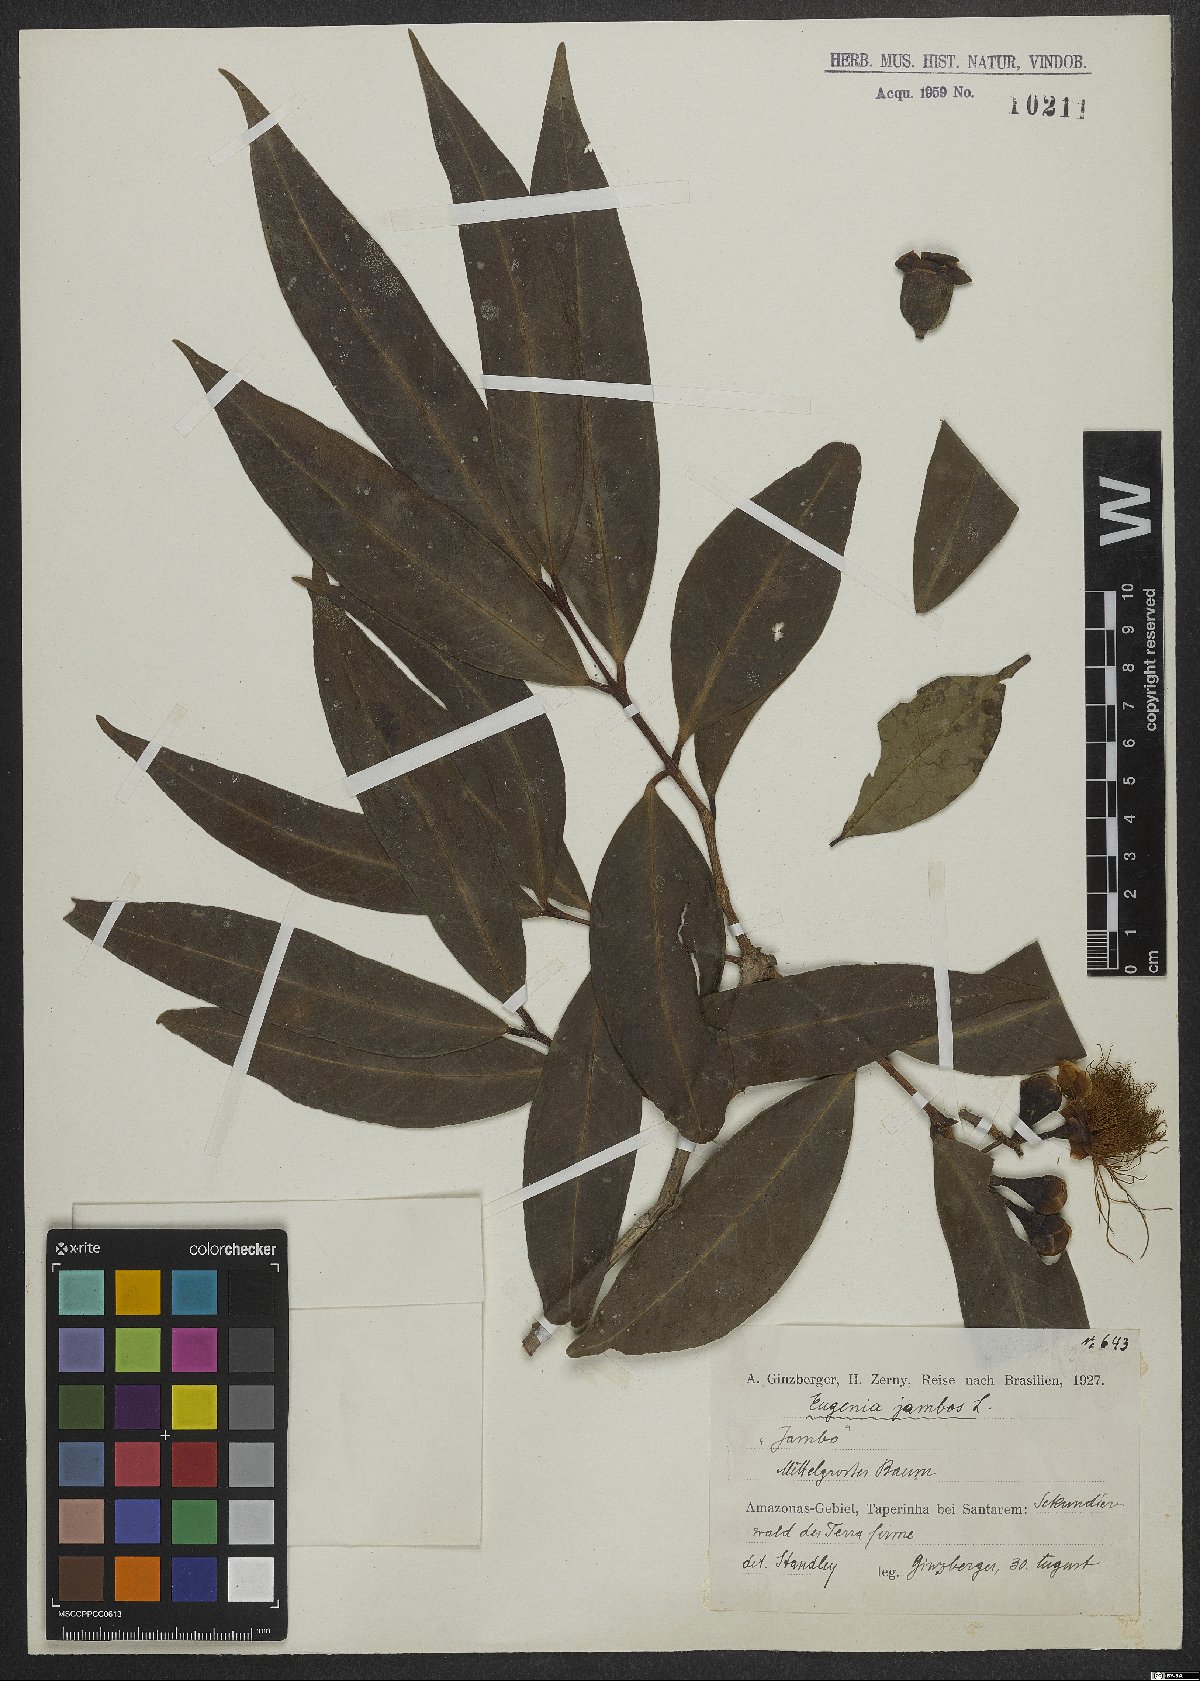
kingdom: Plantae
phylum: Tracheophyta
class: Magnoliopsida
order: Myrtales
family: Myrtaceae
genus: Syzygium
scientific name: Syzygium jambos
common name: Malabar plum
